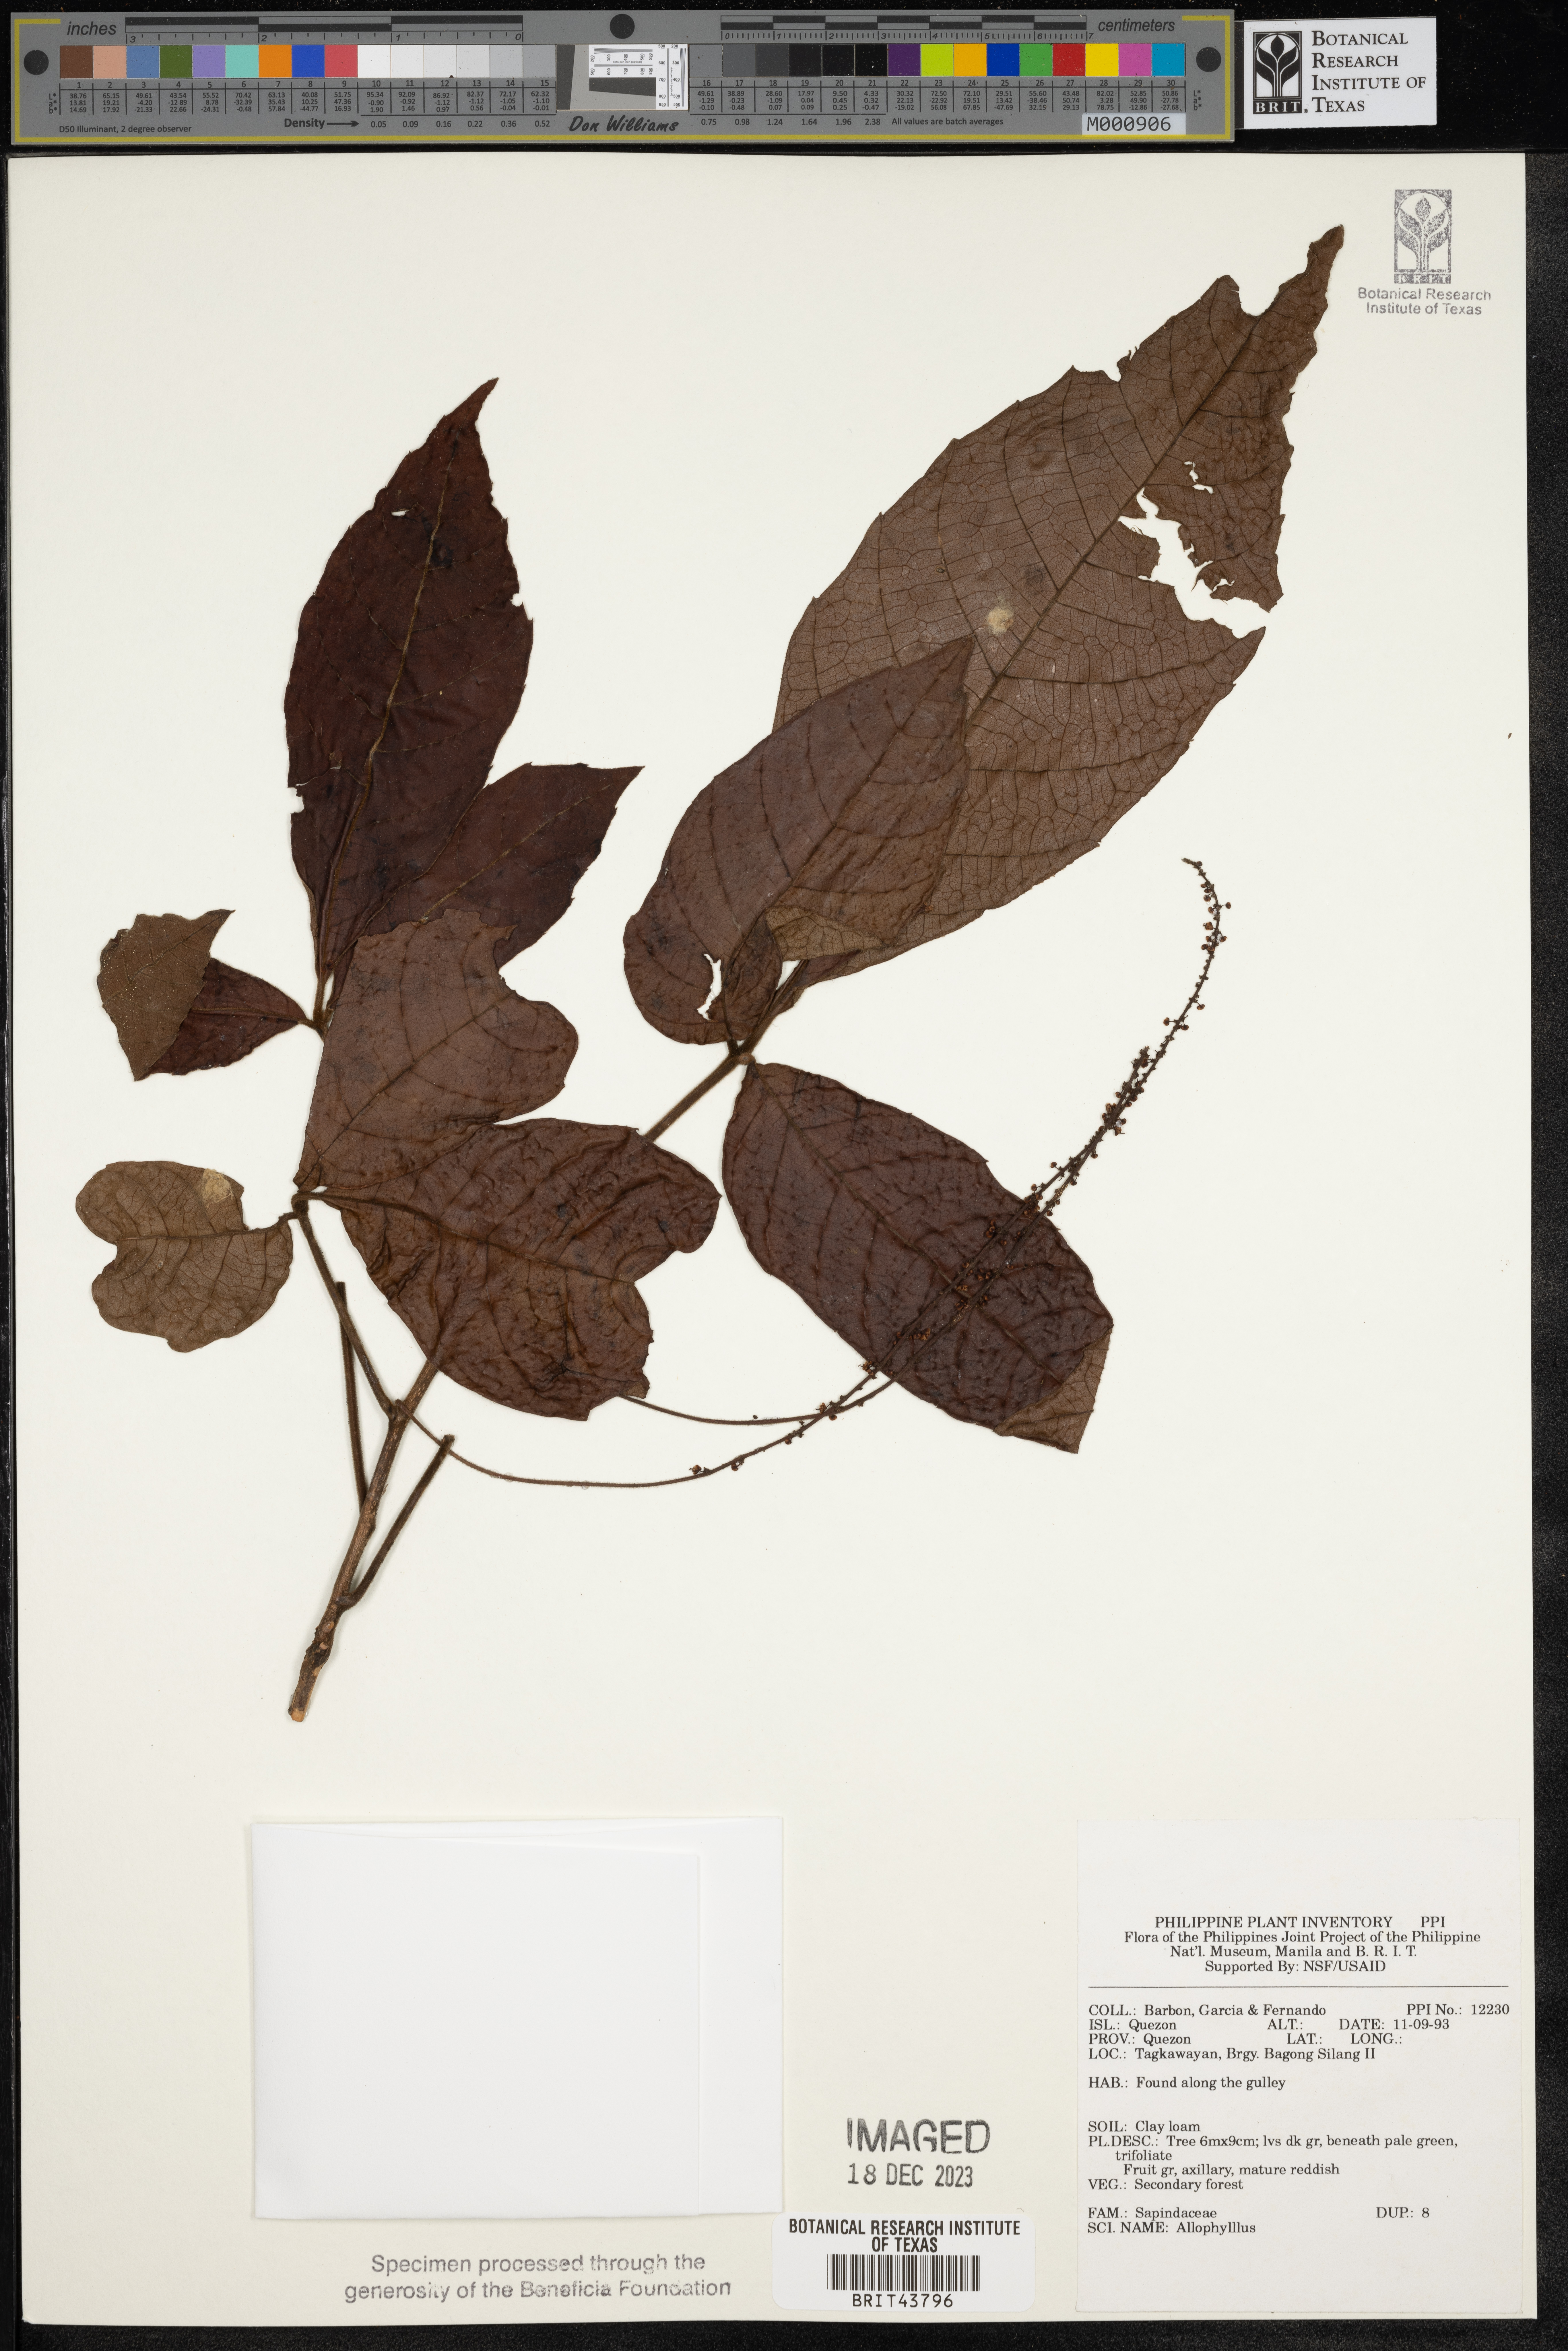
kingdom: Plantae
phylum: Tracheophyta
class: Magnoliopsida
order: Sapindales
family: Sapindaceae
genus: Allophylus
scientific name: Allophylus
